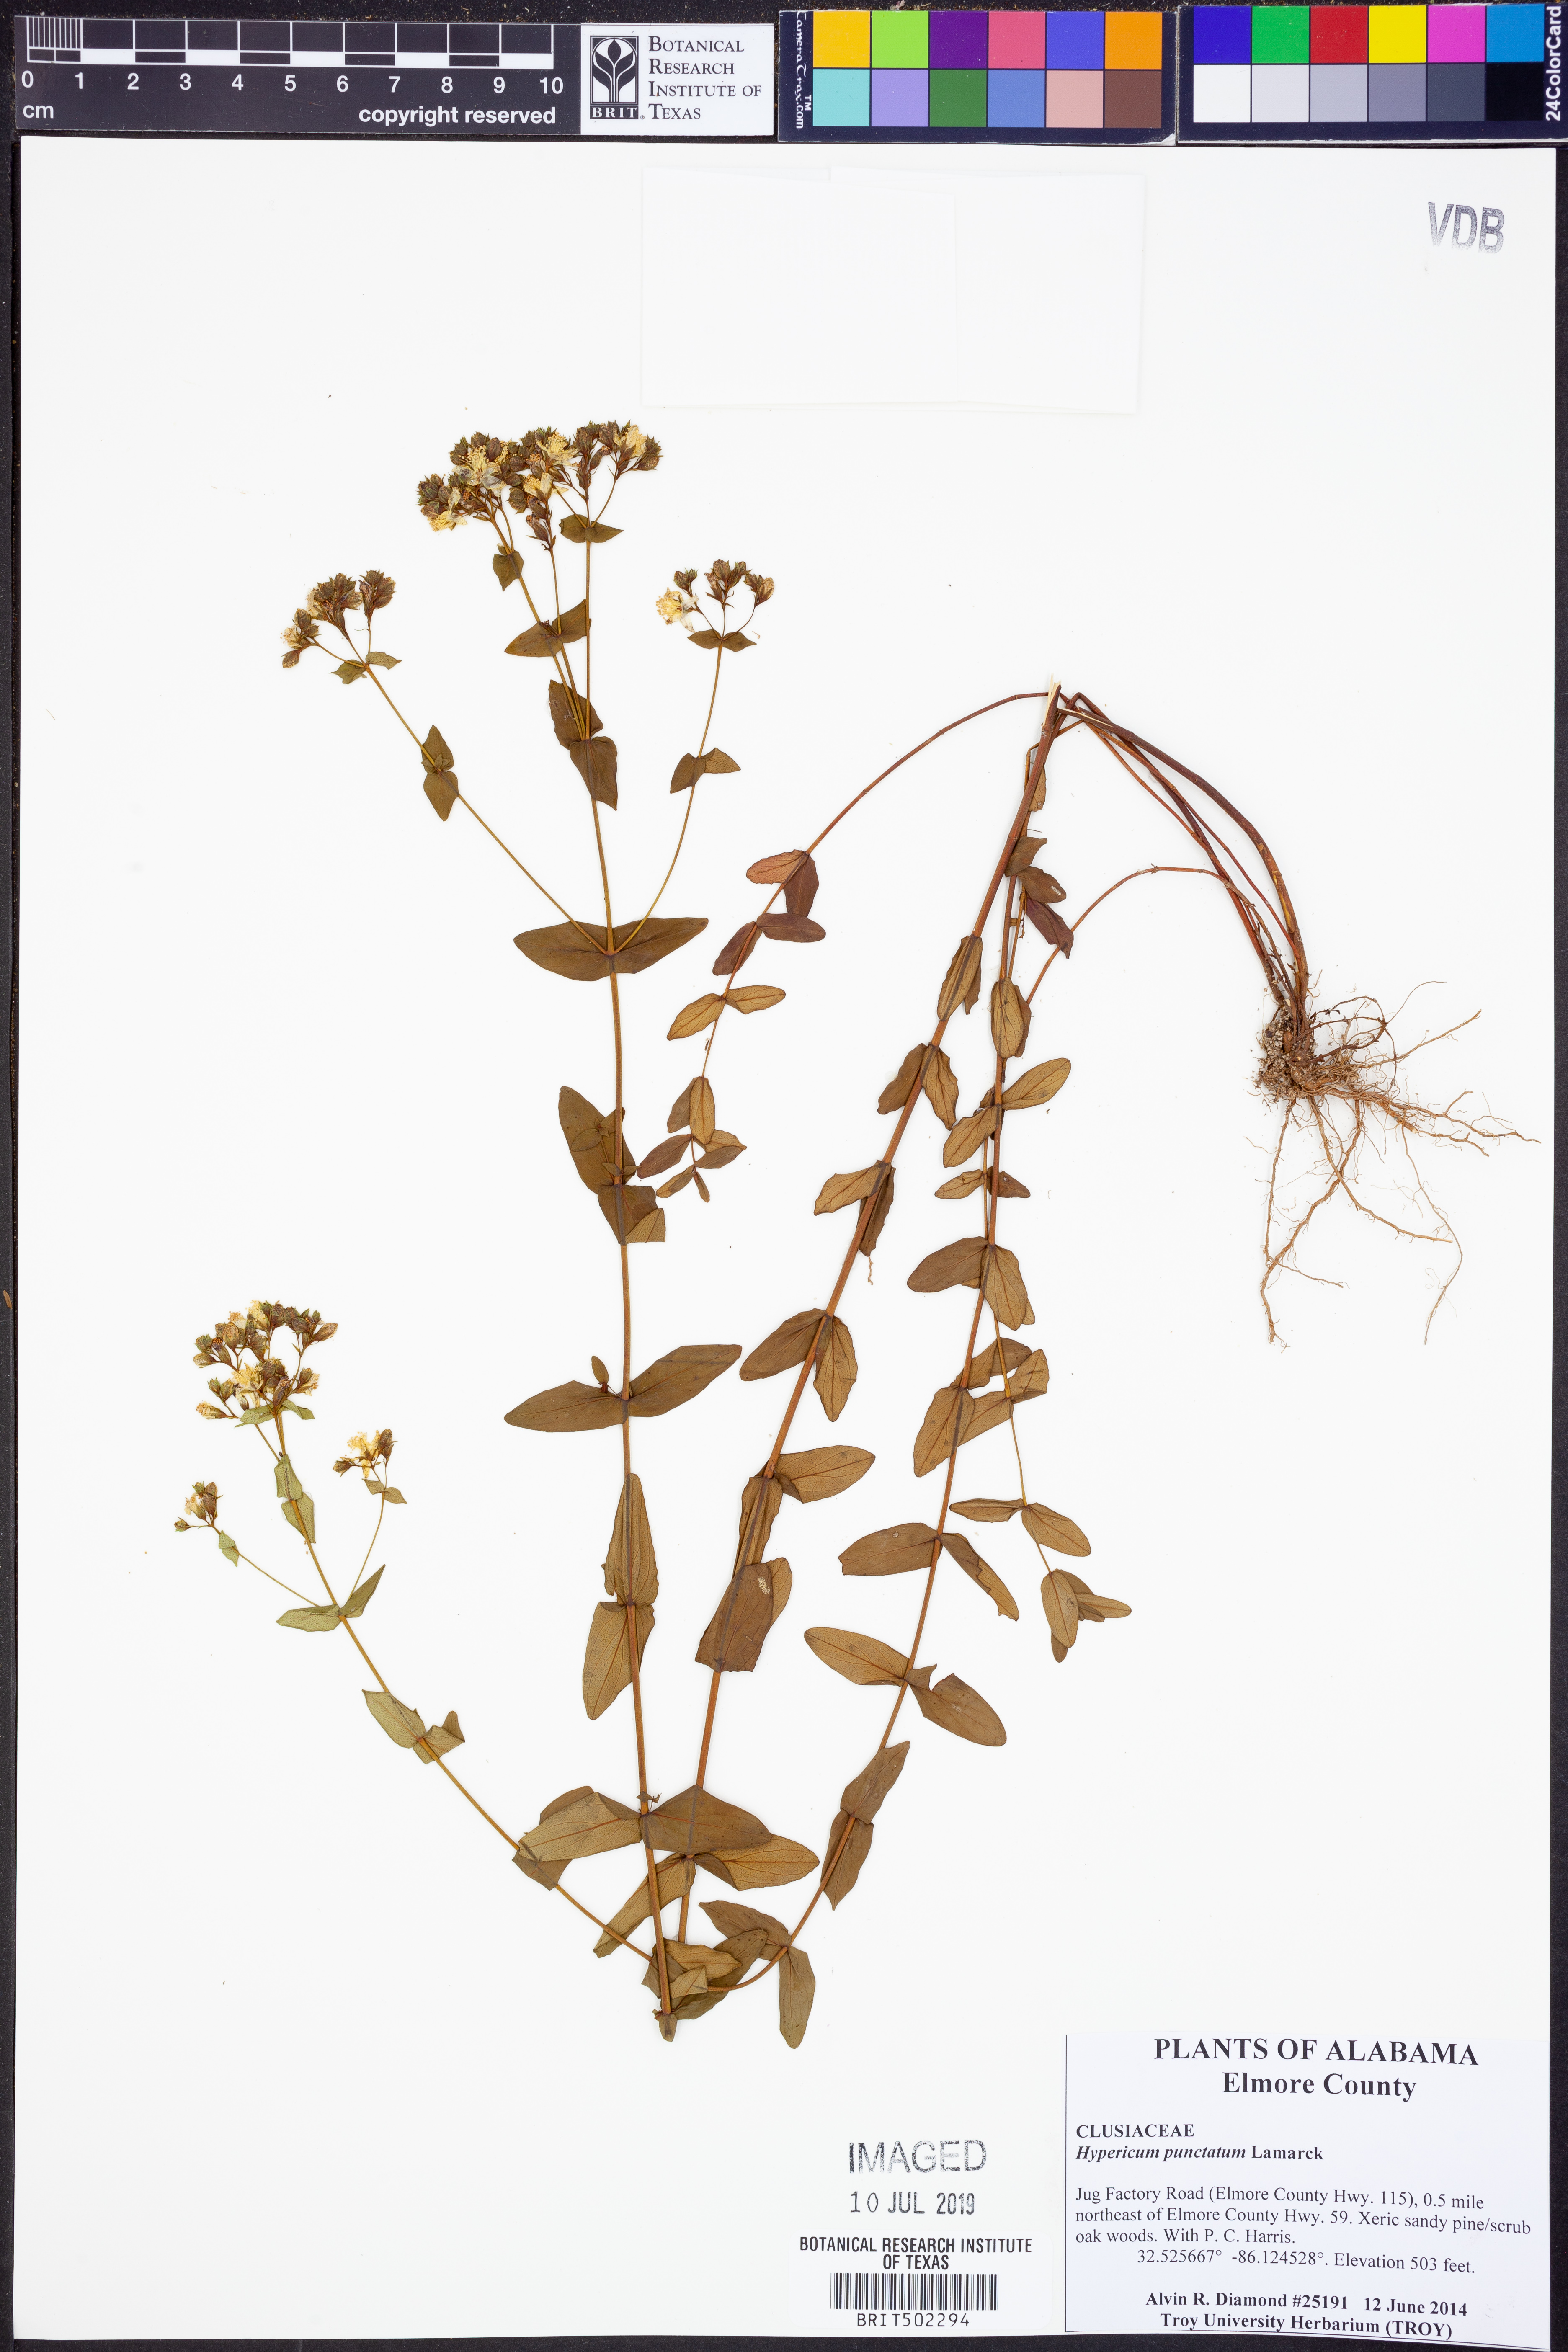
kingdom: Plantae
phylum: Tracheophyta
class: Magnoliopsida
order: Malpighiales
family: Hypericaceae
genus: Hypericum
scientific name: Hypericum punctatum
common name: Spotted st. john's-wort
